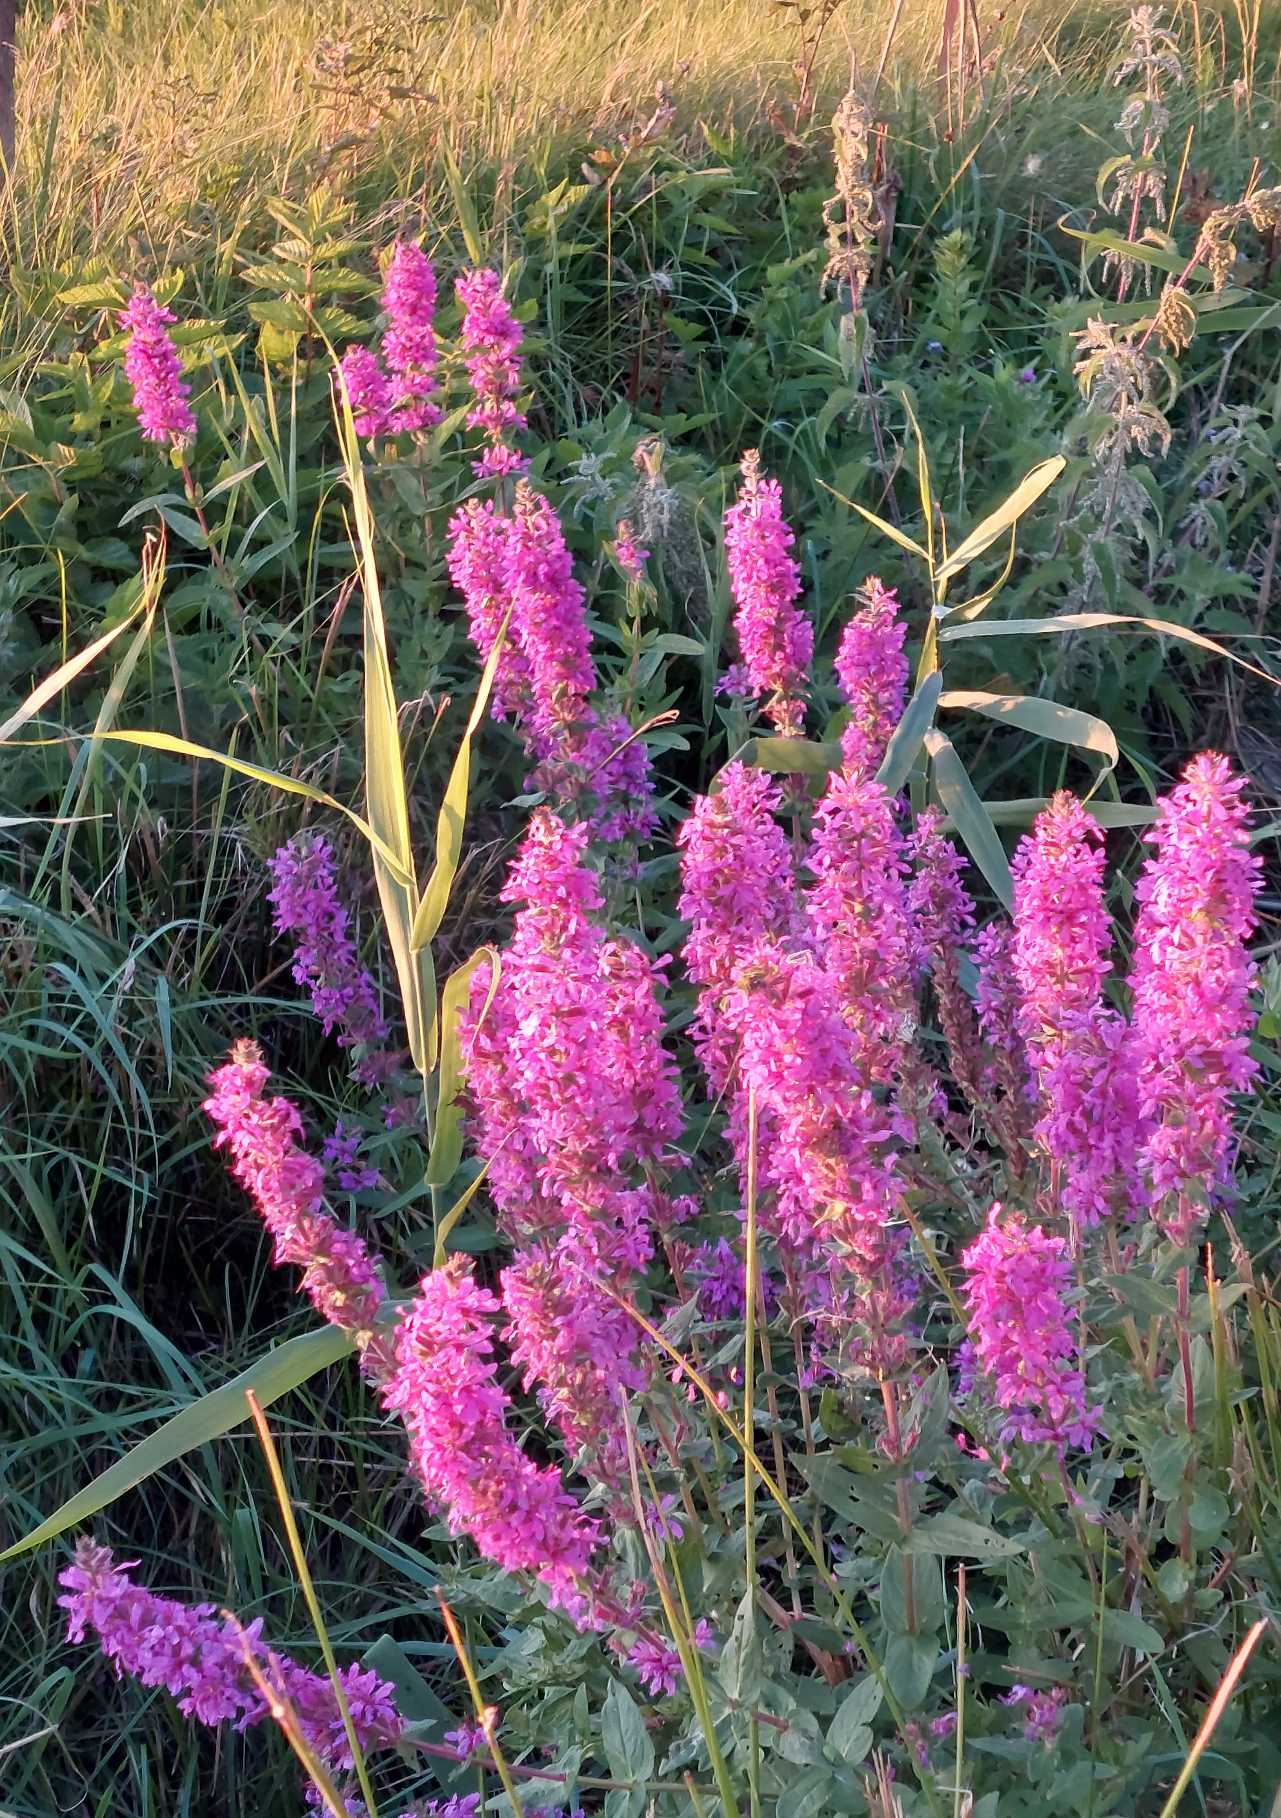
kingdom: Plantae
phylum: Tracheophyta
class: Magnoliopsida
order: Myrtales
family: Lythraceae
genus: Lythrum
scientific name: Lythrum salicaria
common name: Kattehale
